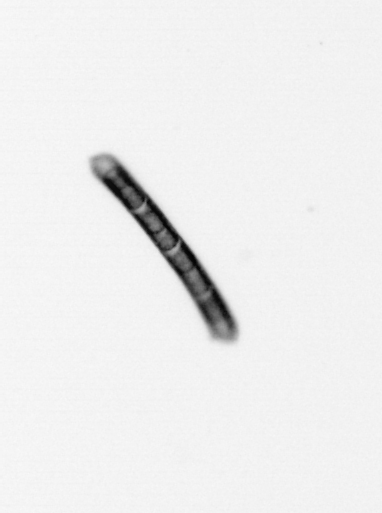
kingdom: Chromista
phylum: Ochrophyta
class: Bacillariophyceae
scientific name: Bacillariophyceae
